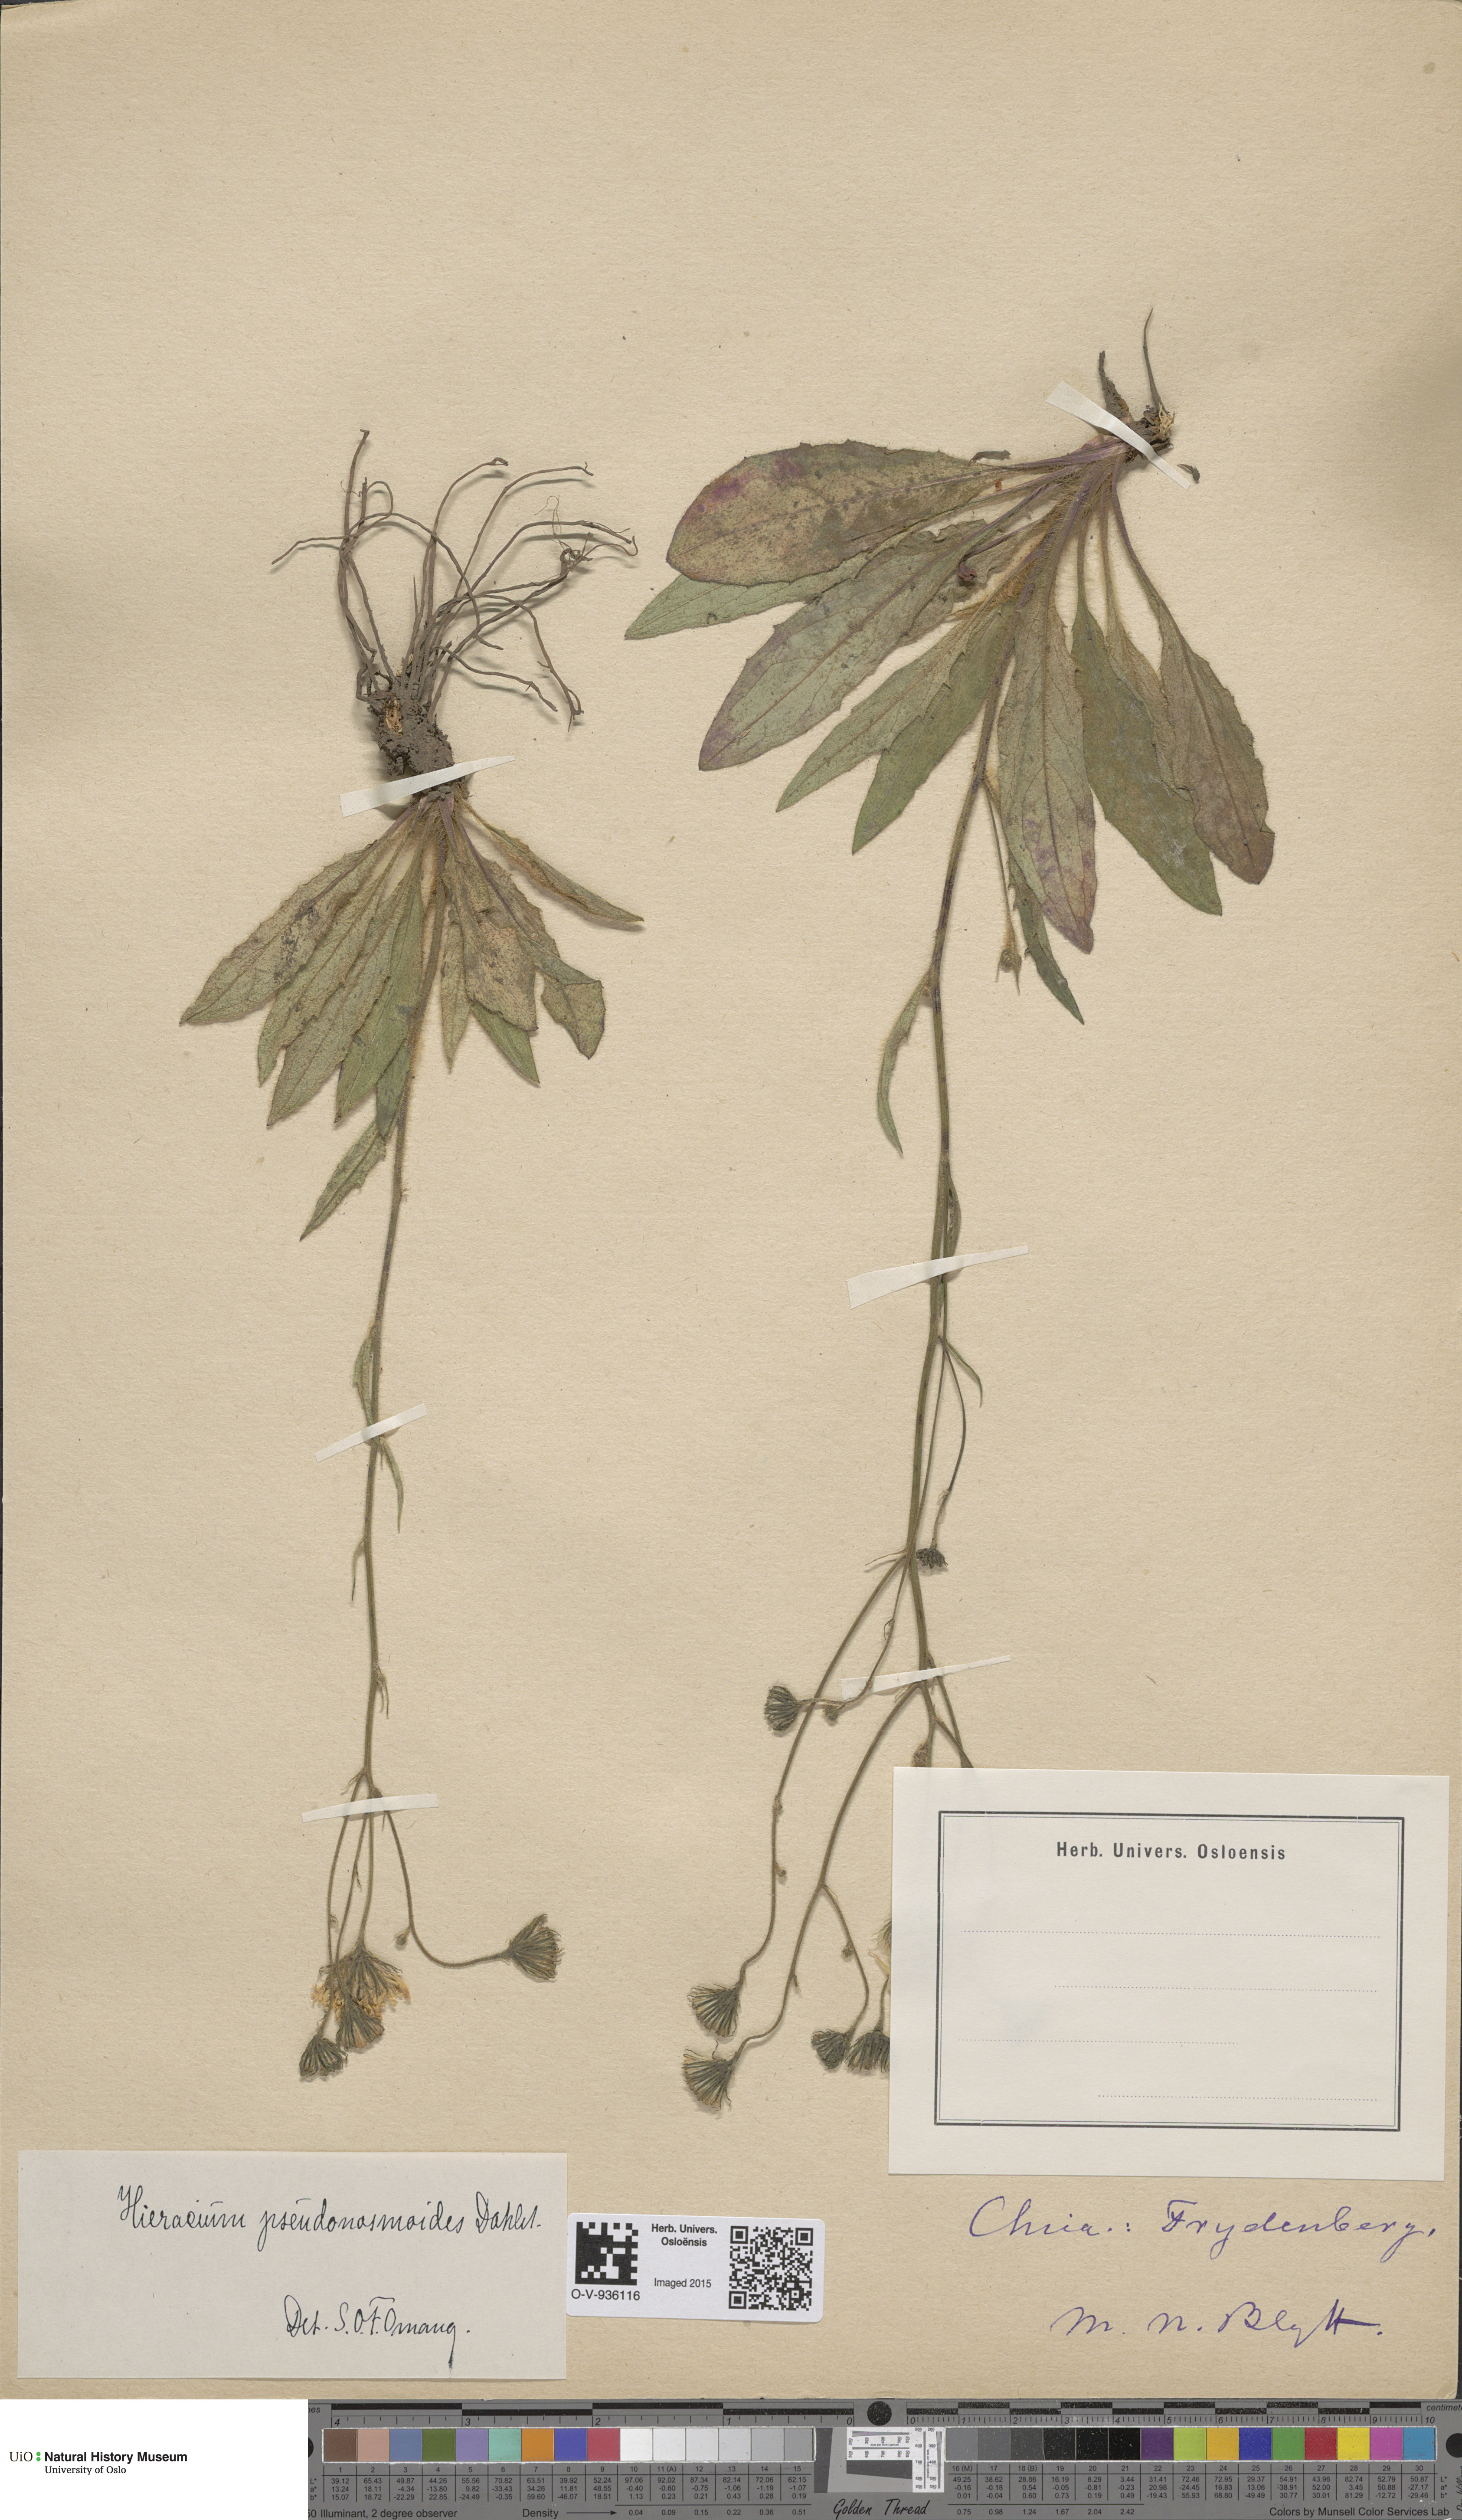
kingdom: Plantae
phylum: Tracheophyta
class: Magnoliopsida
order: Asterales
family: Asteraceae
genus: Hieracium
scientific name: Hieracium saxifragum
